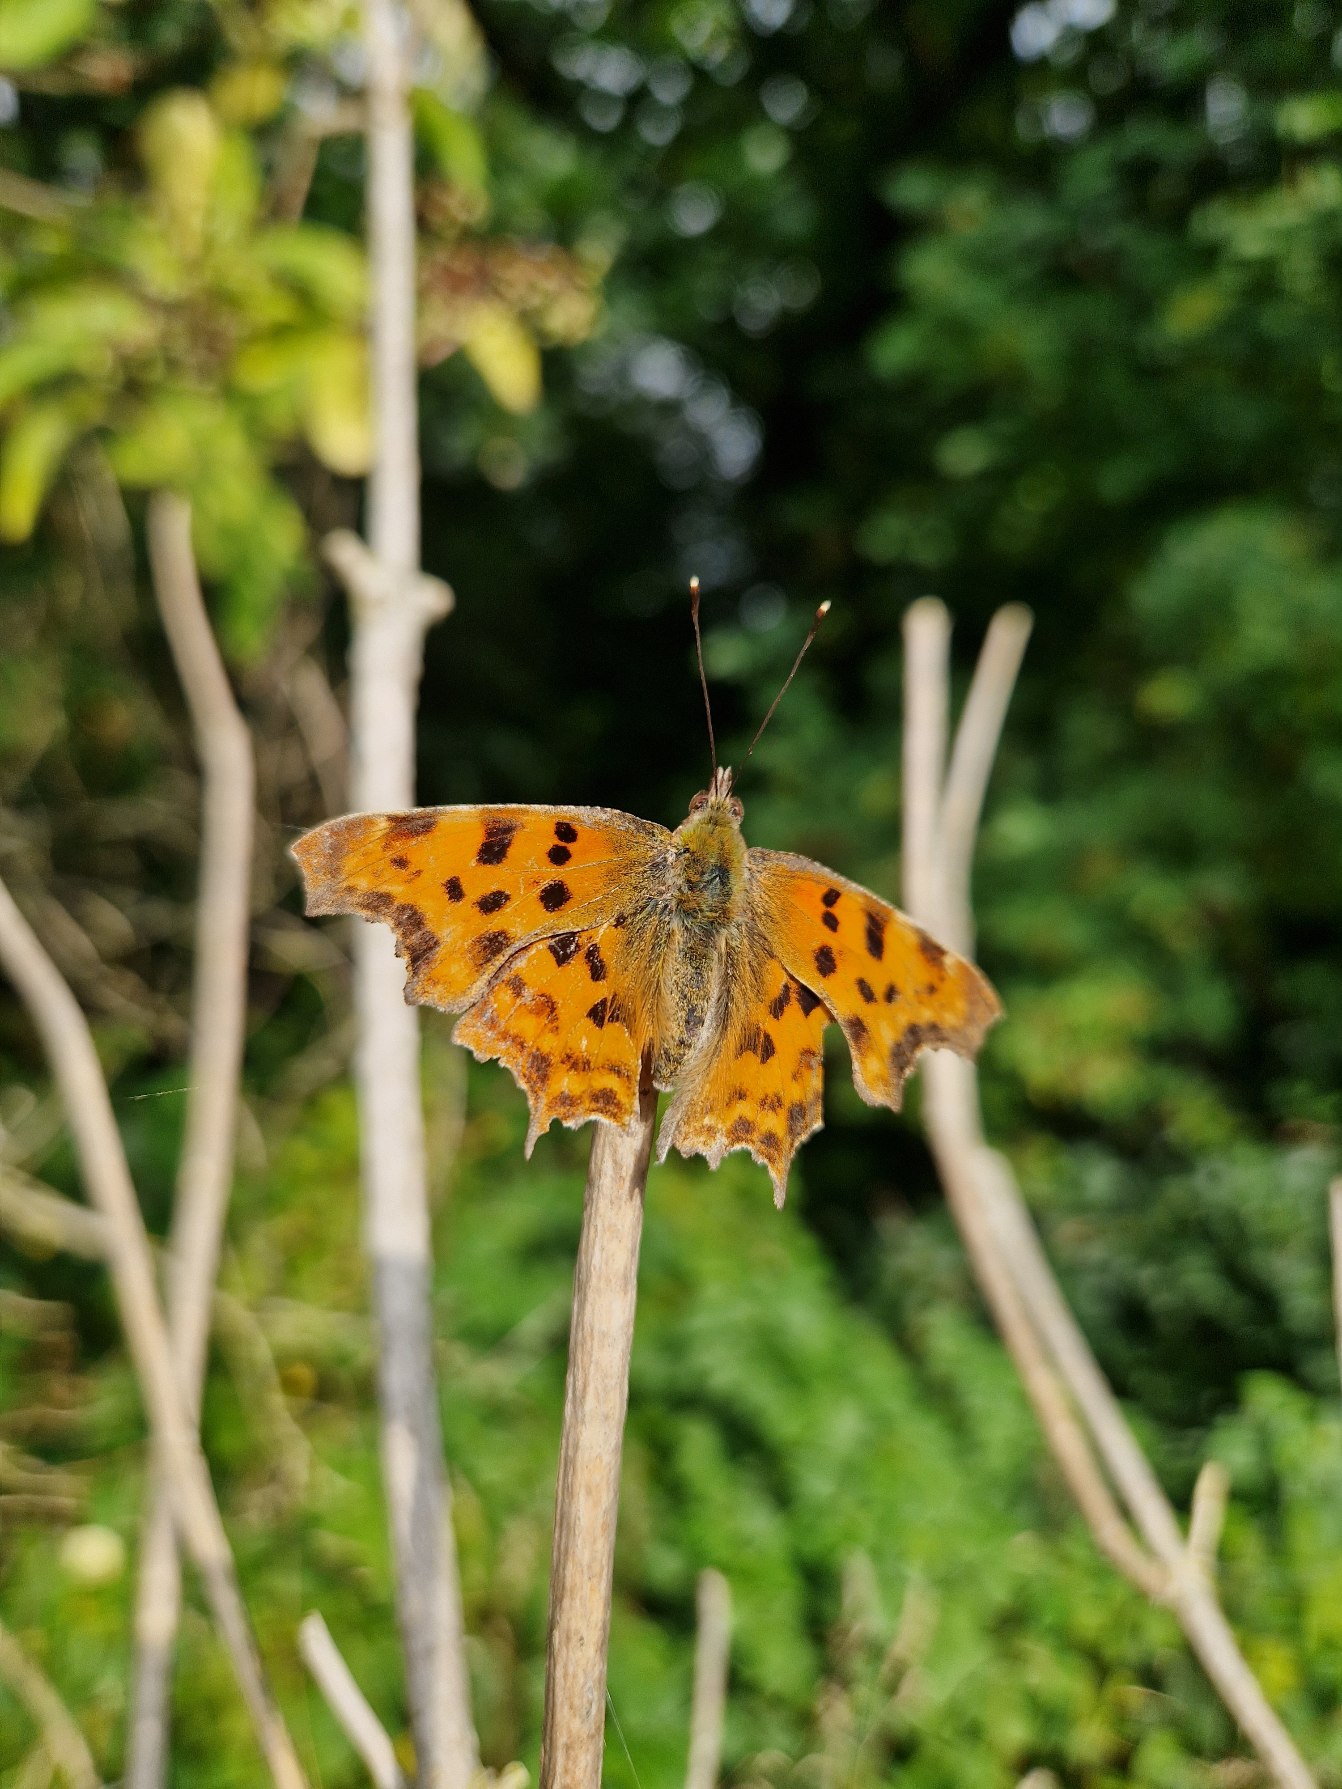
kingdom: Animalia
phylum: Arthropoda
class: Insecta
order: Lepidoptera
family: Nymphalidae
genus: Polygonia
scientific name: Polygonia c-album
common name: Det hvide C
